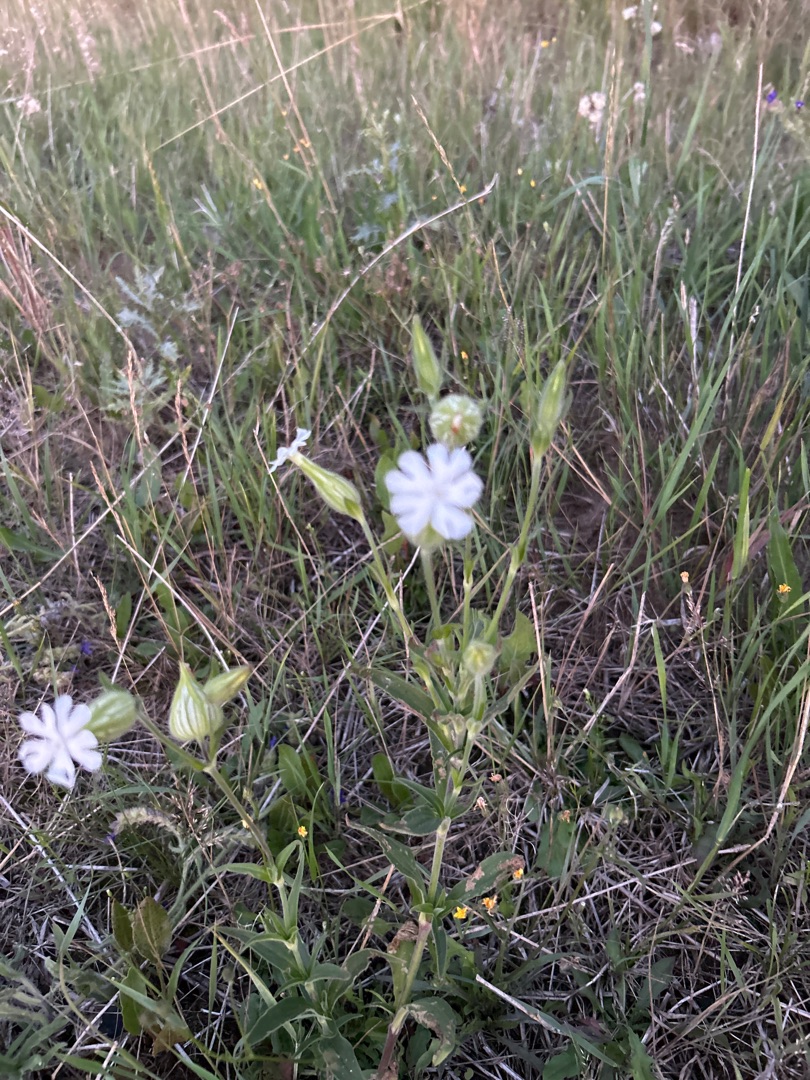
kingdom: Plantae
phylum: Tracheophyta
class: Magnoliopsida
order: Caryophyllales
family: Caryophyllaceae
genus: Silene
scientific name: Silene latifolia
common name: Aftenpragtstjerne
